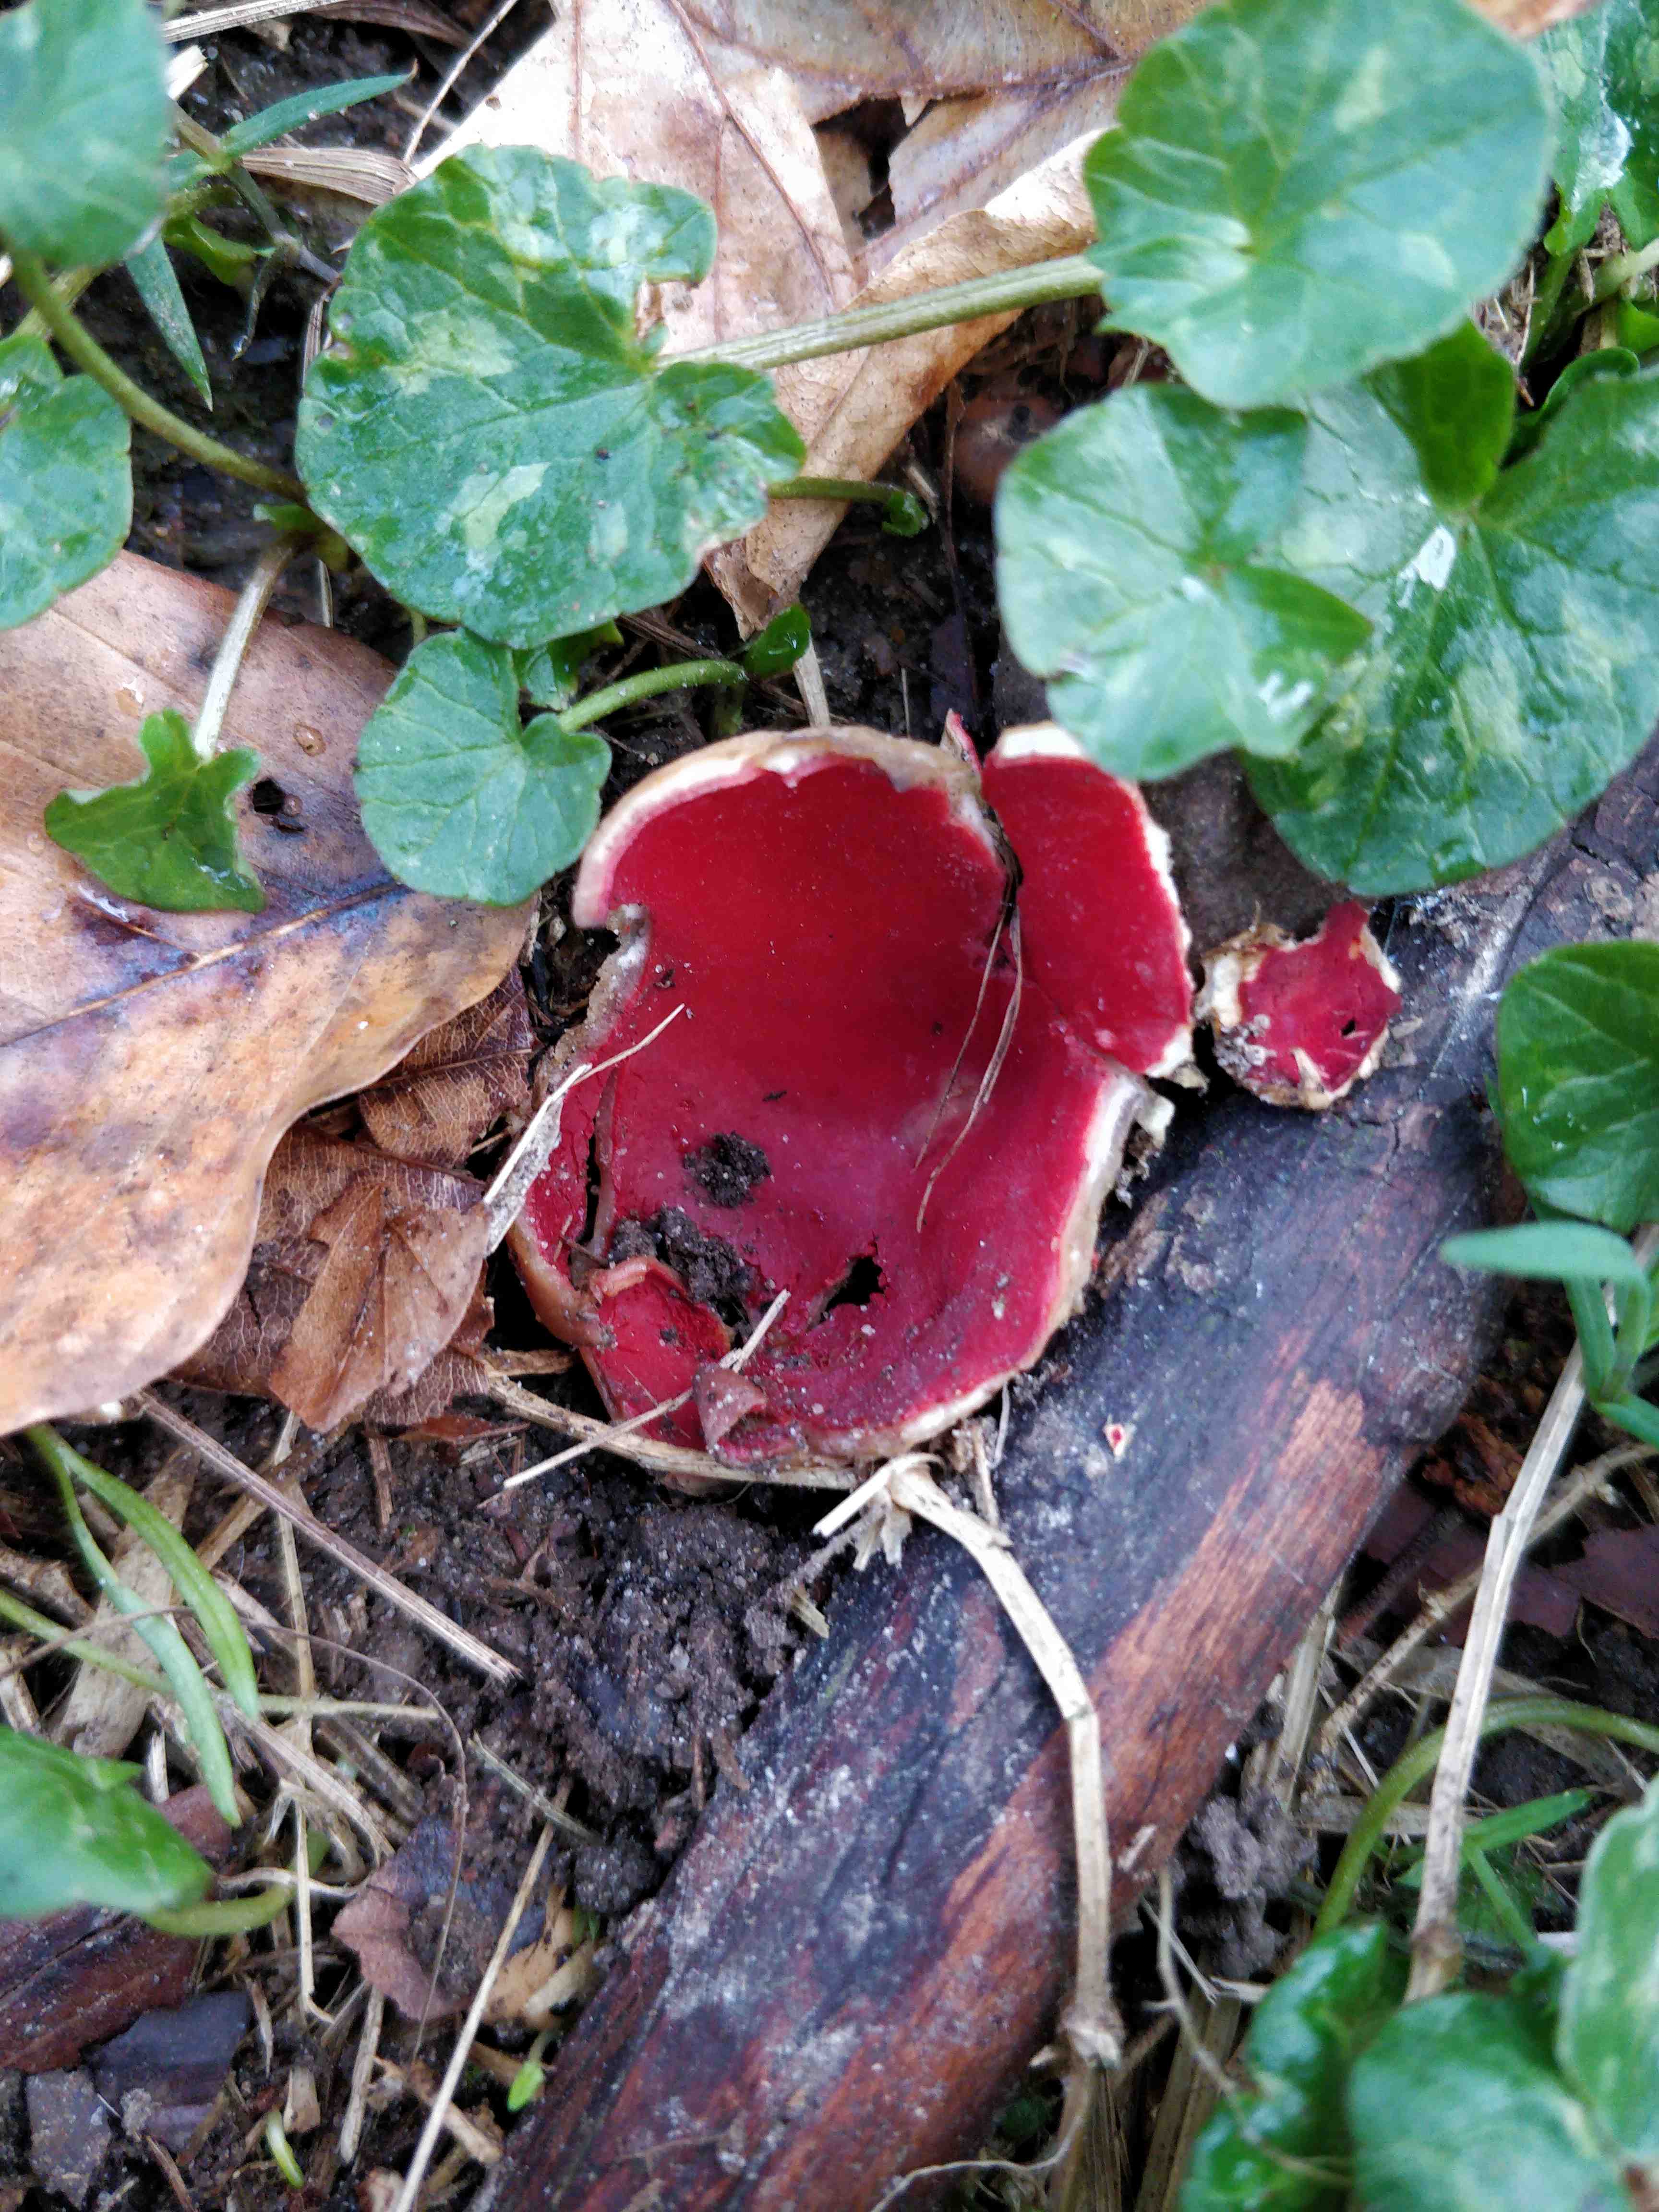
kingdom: Fungi
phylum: Ascomycota
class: Pezizomycetes
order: Pezizales
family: Sarcoscyphaceae
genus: Sarcoscypha
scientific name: Sarcoscypha
